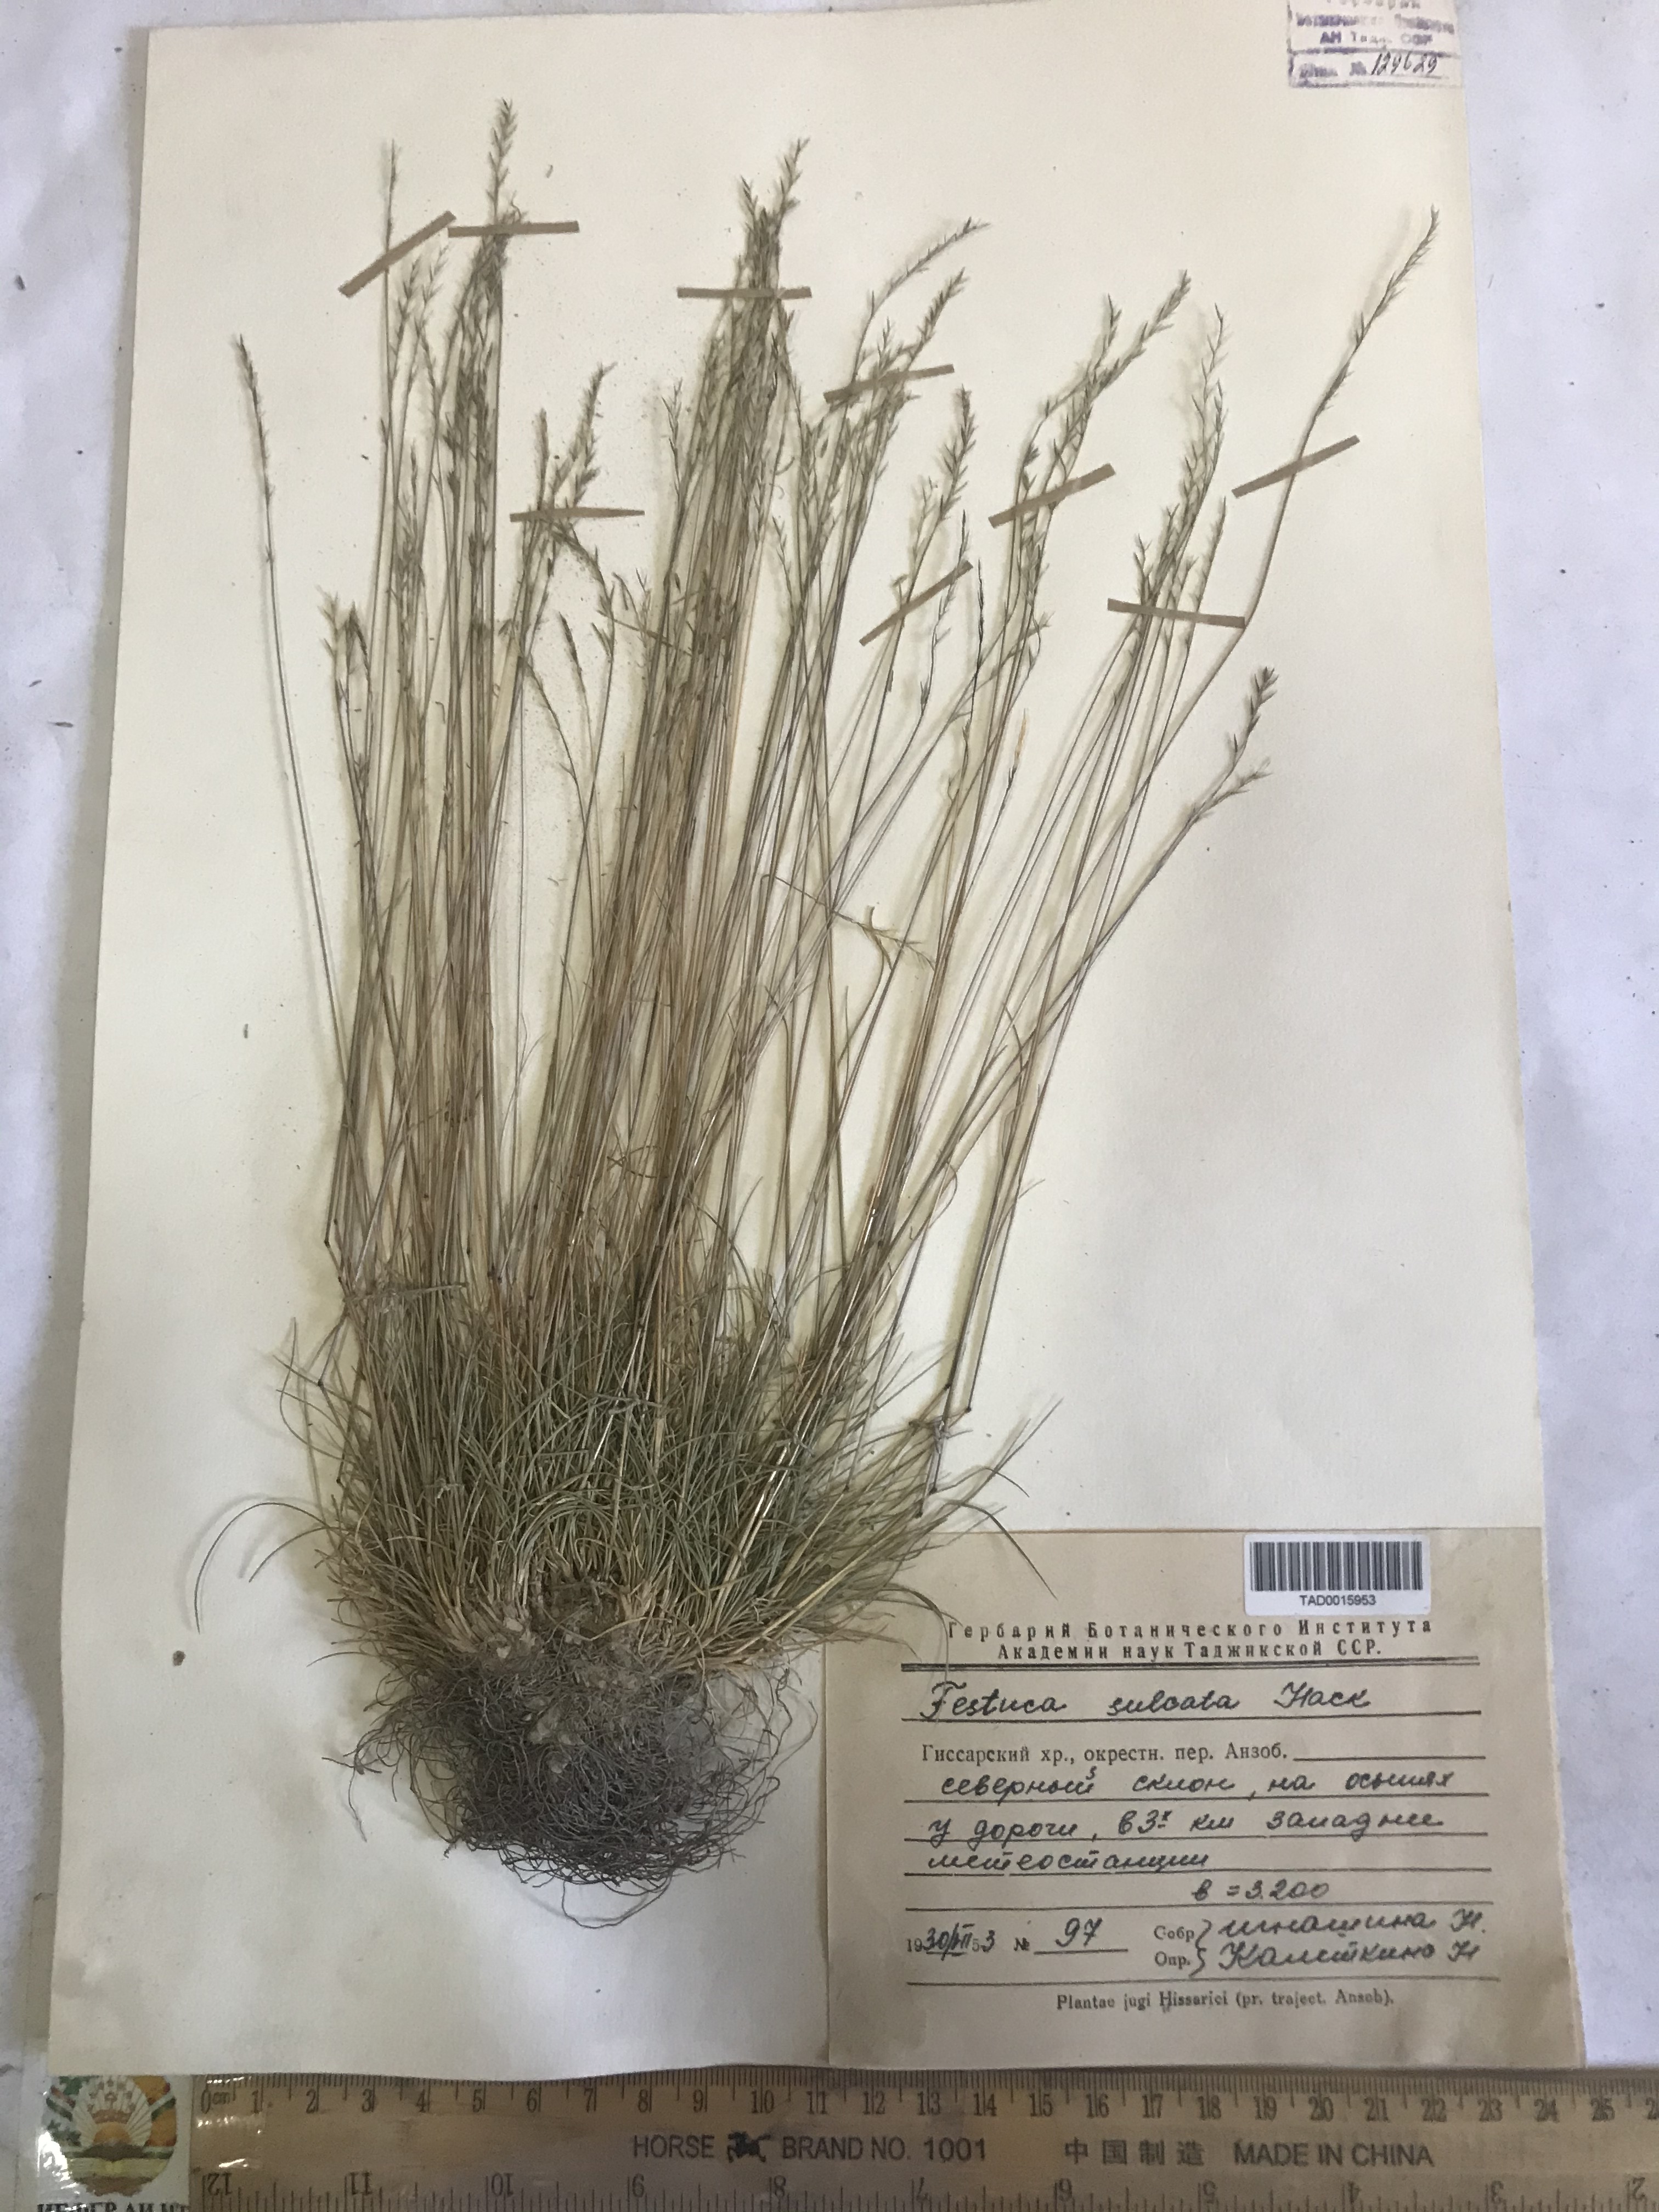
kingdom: Plantae
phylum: Tracheophyta
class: Liliopsida
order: Poales
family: Poaceae
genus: Festuca
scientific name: Festuca sulcata
